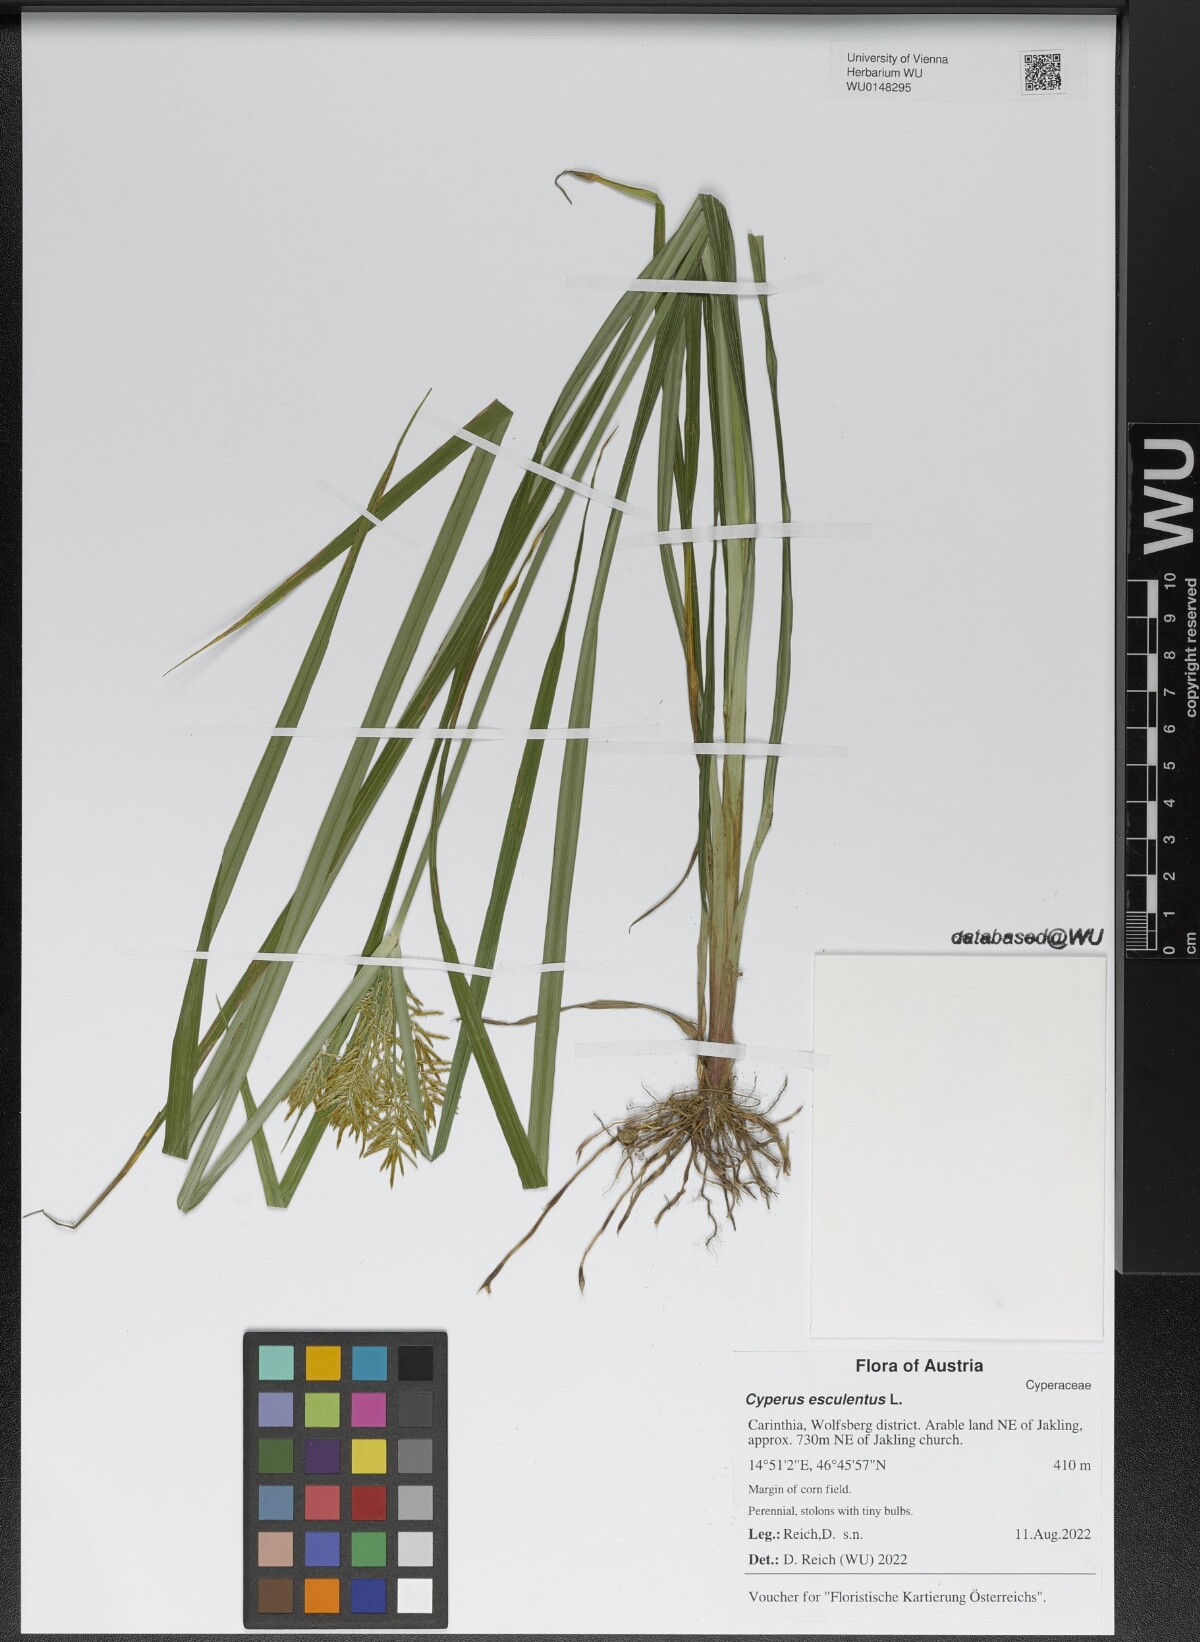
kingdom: Plantae
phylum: Tracheophyta
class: Liliopsida
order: Poales
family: Cyperaceae
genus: Cyperus
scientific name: Cyperus esculentus
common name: Yellow nutsedge
